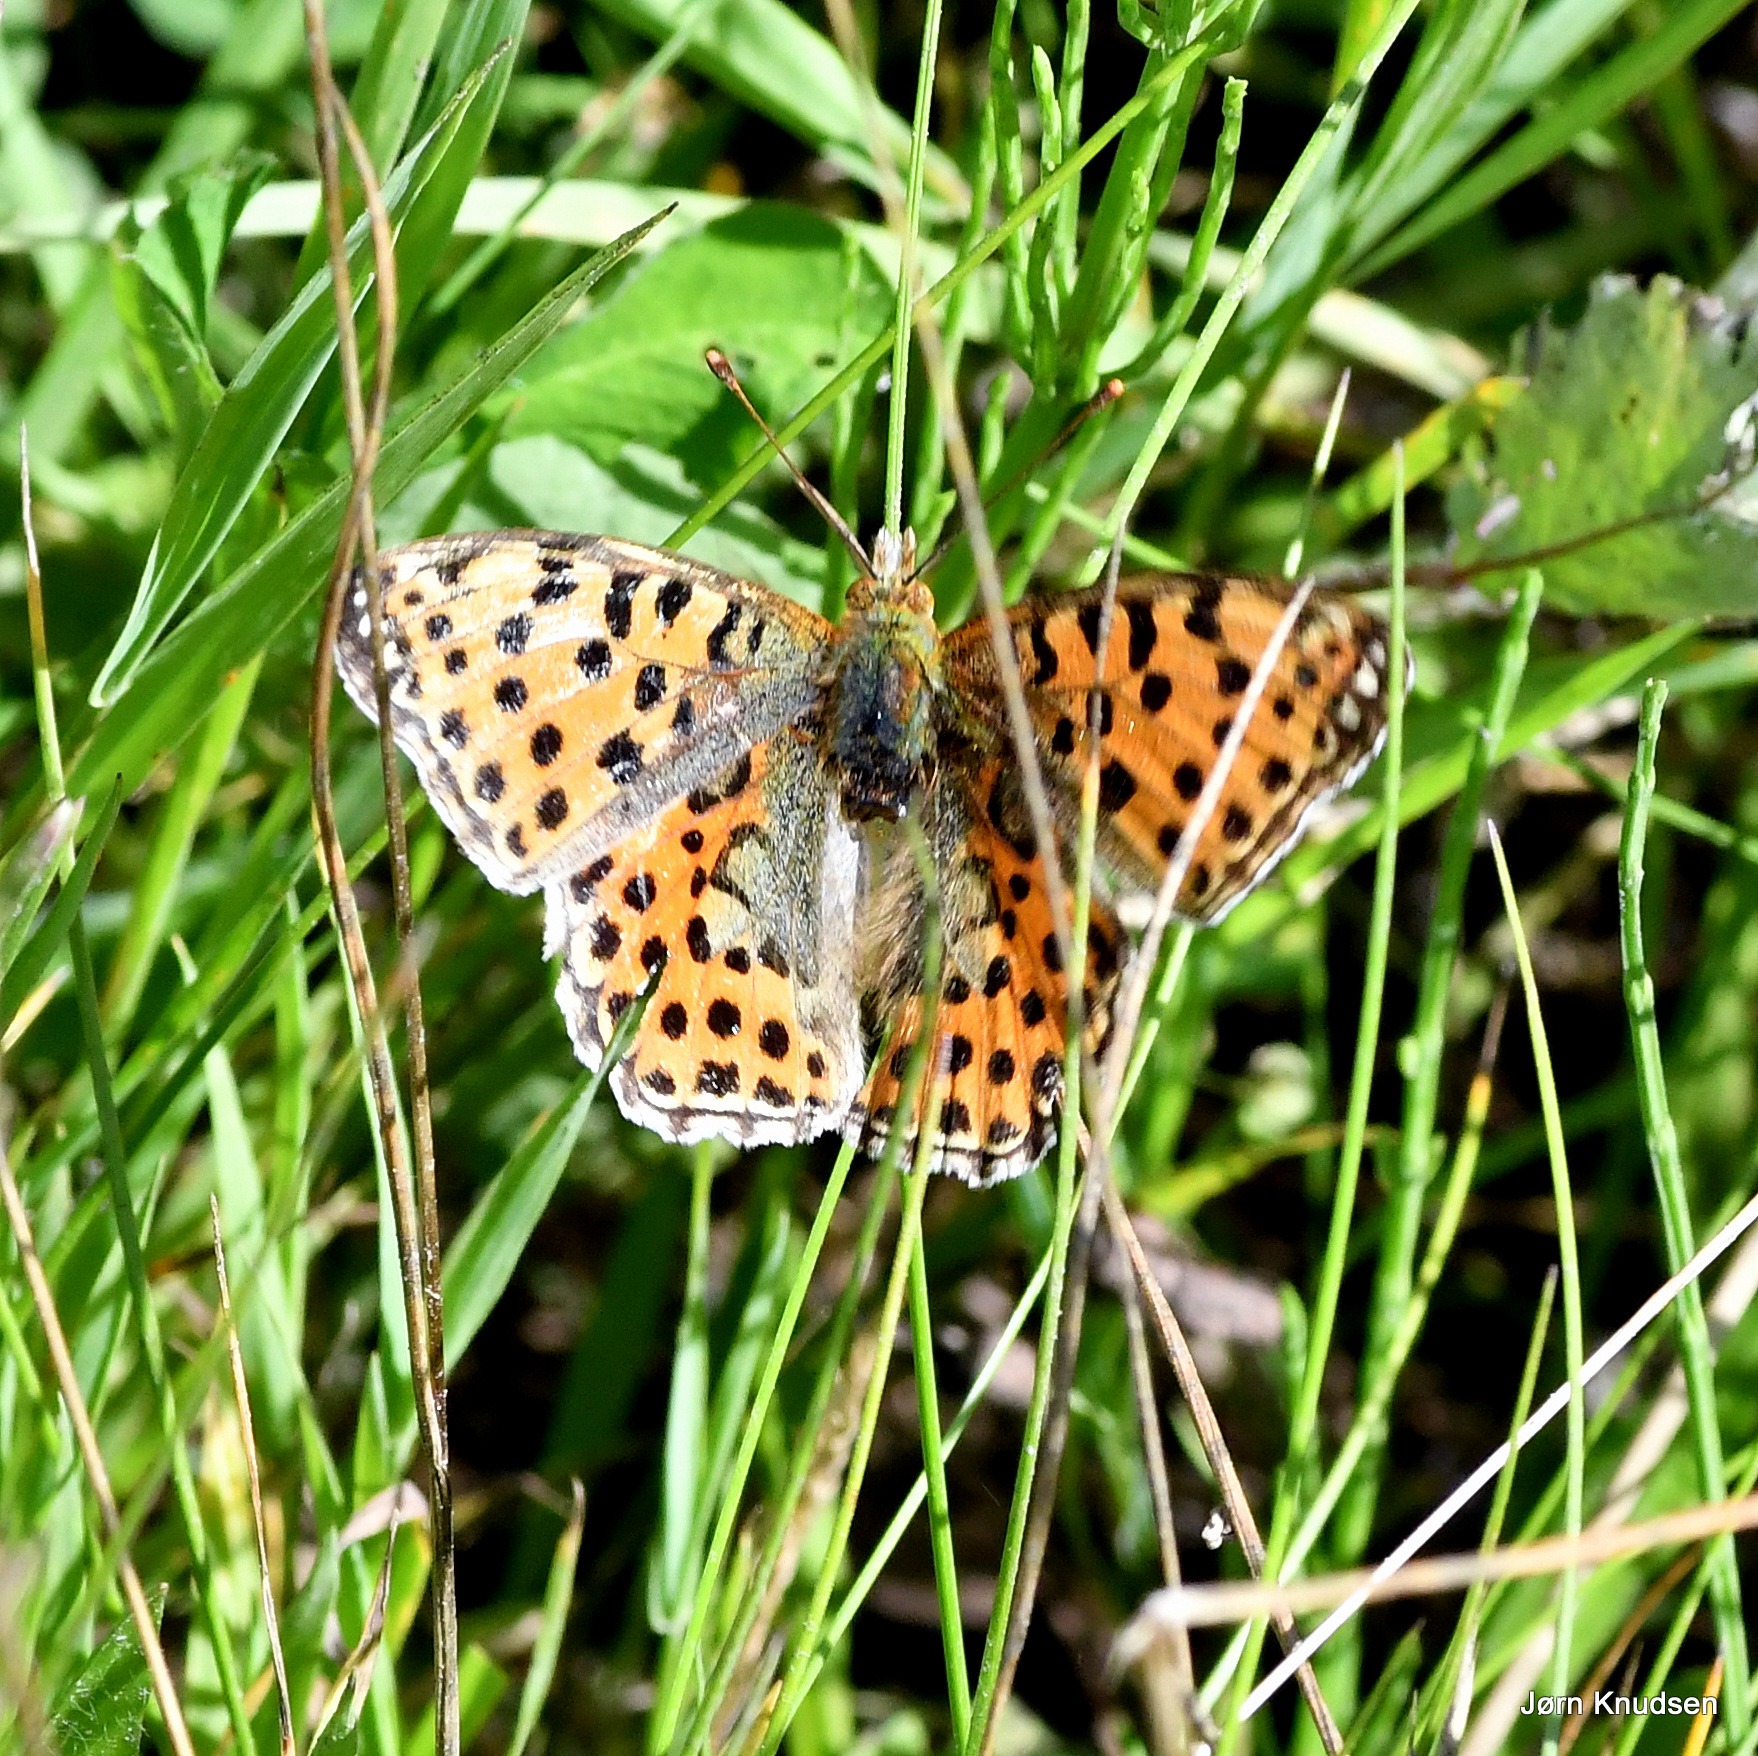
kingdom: Animalia
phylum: Arthropoda
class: Insecta
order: Lepidoptera
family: Nymphalidae
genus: Issoria
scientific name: Issoria lathonia
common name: Storplettet perlemorsommerfugl
